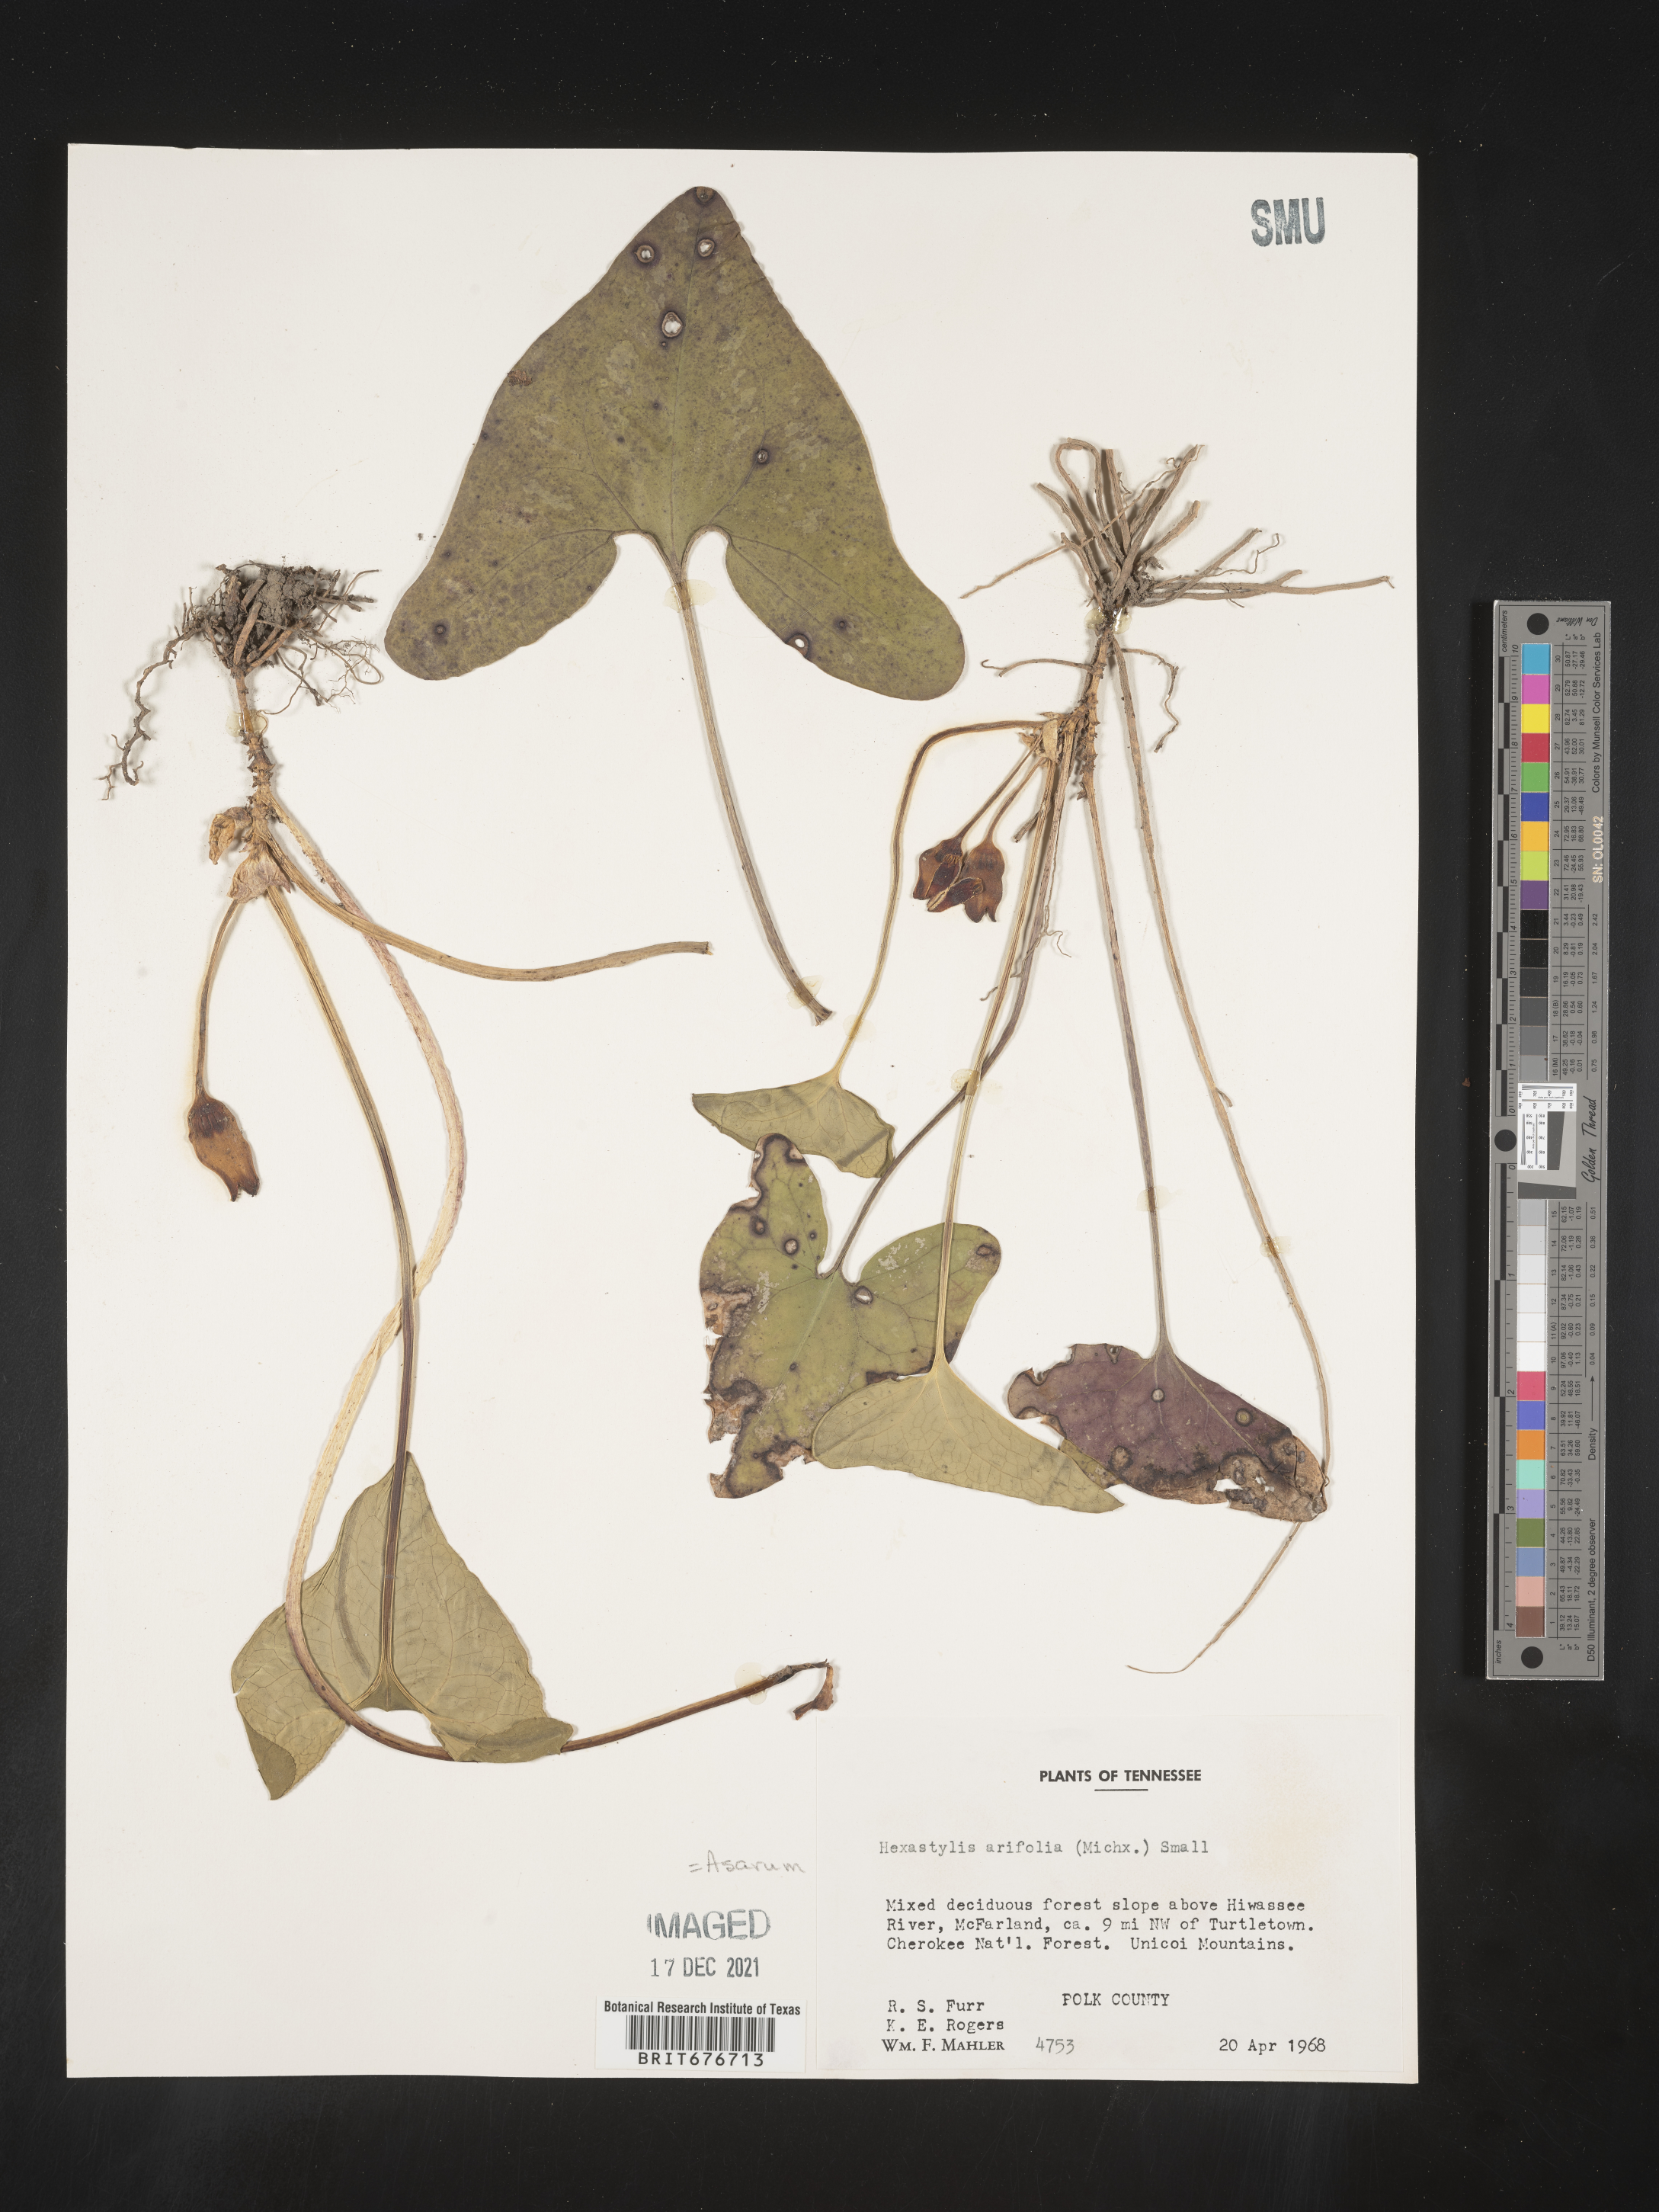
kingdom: Plantae
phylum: Tracheophyta
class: Magnoliopsida
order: Piperales
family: Aristolochiaceae
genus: Hexastylis
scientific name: Hexastylis arifolia
